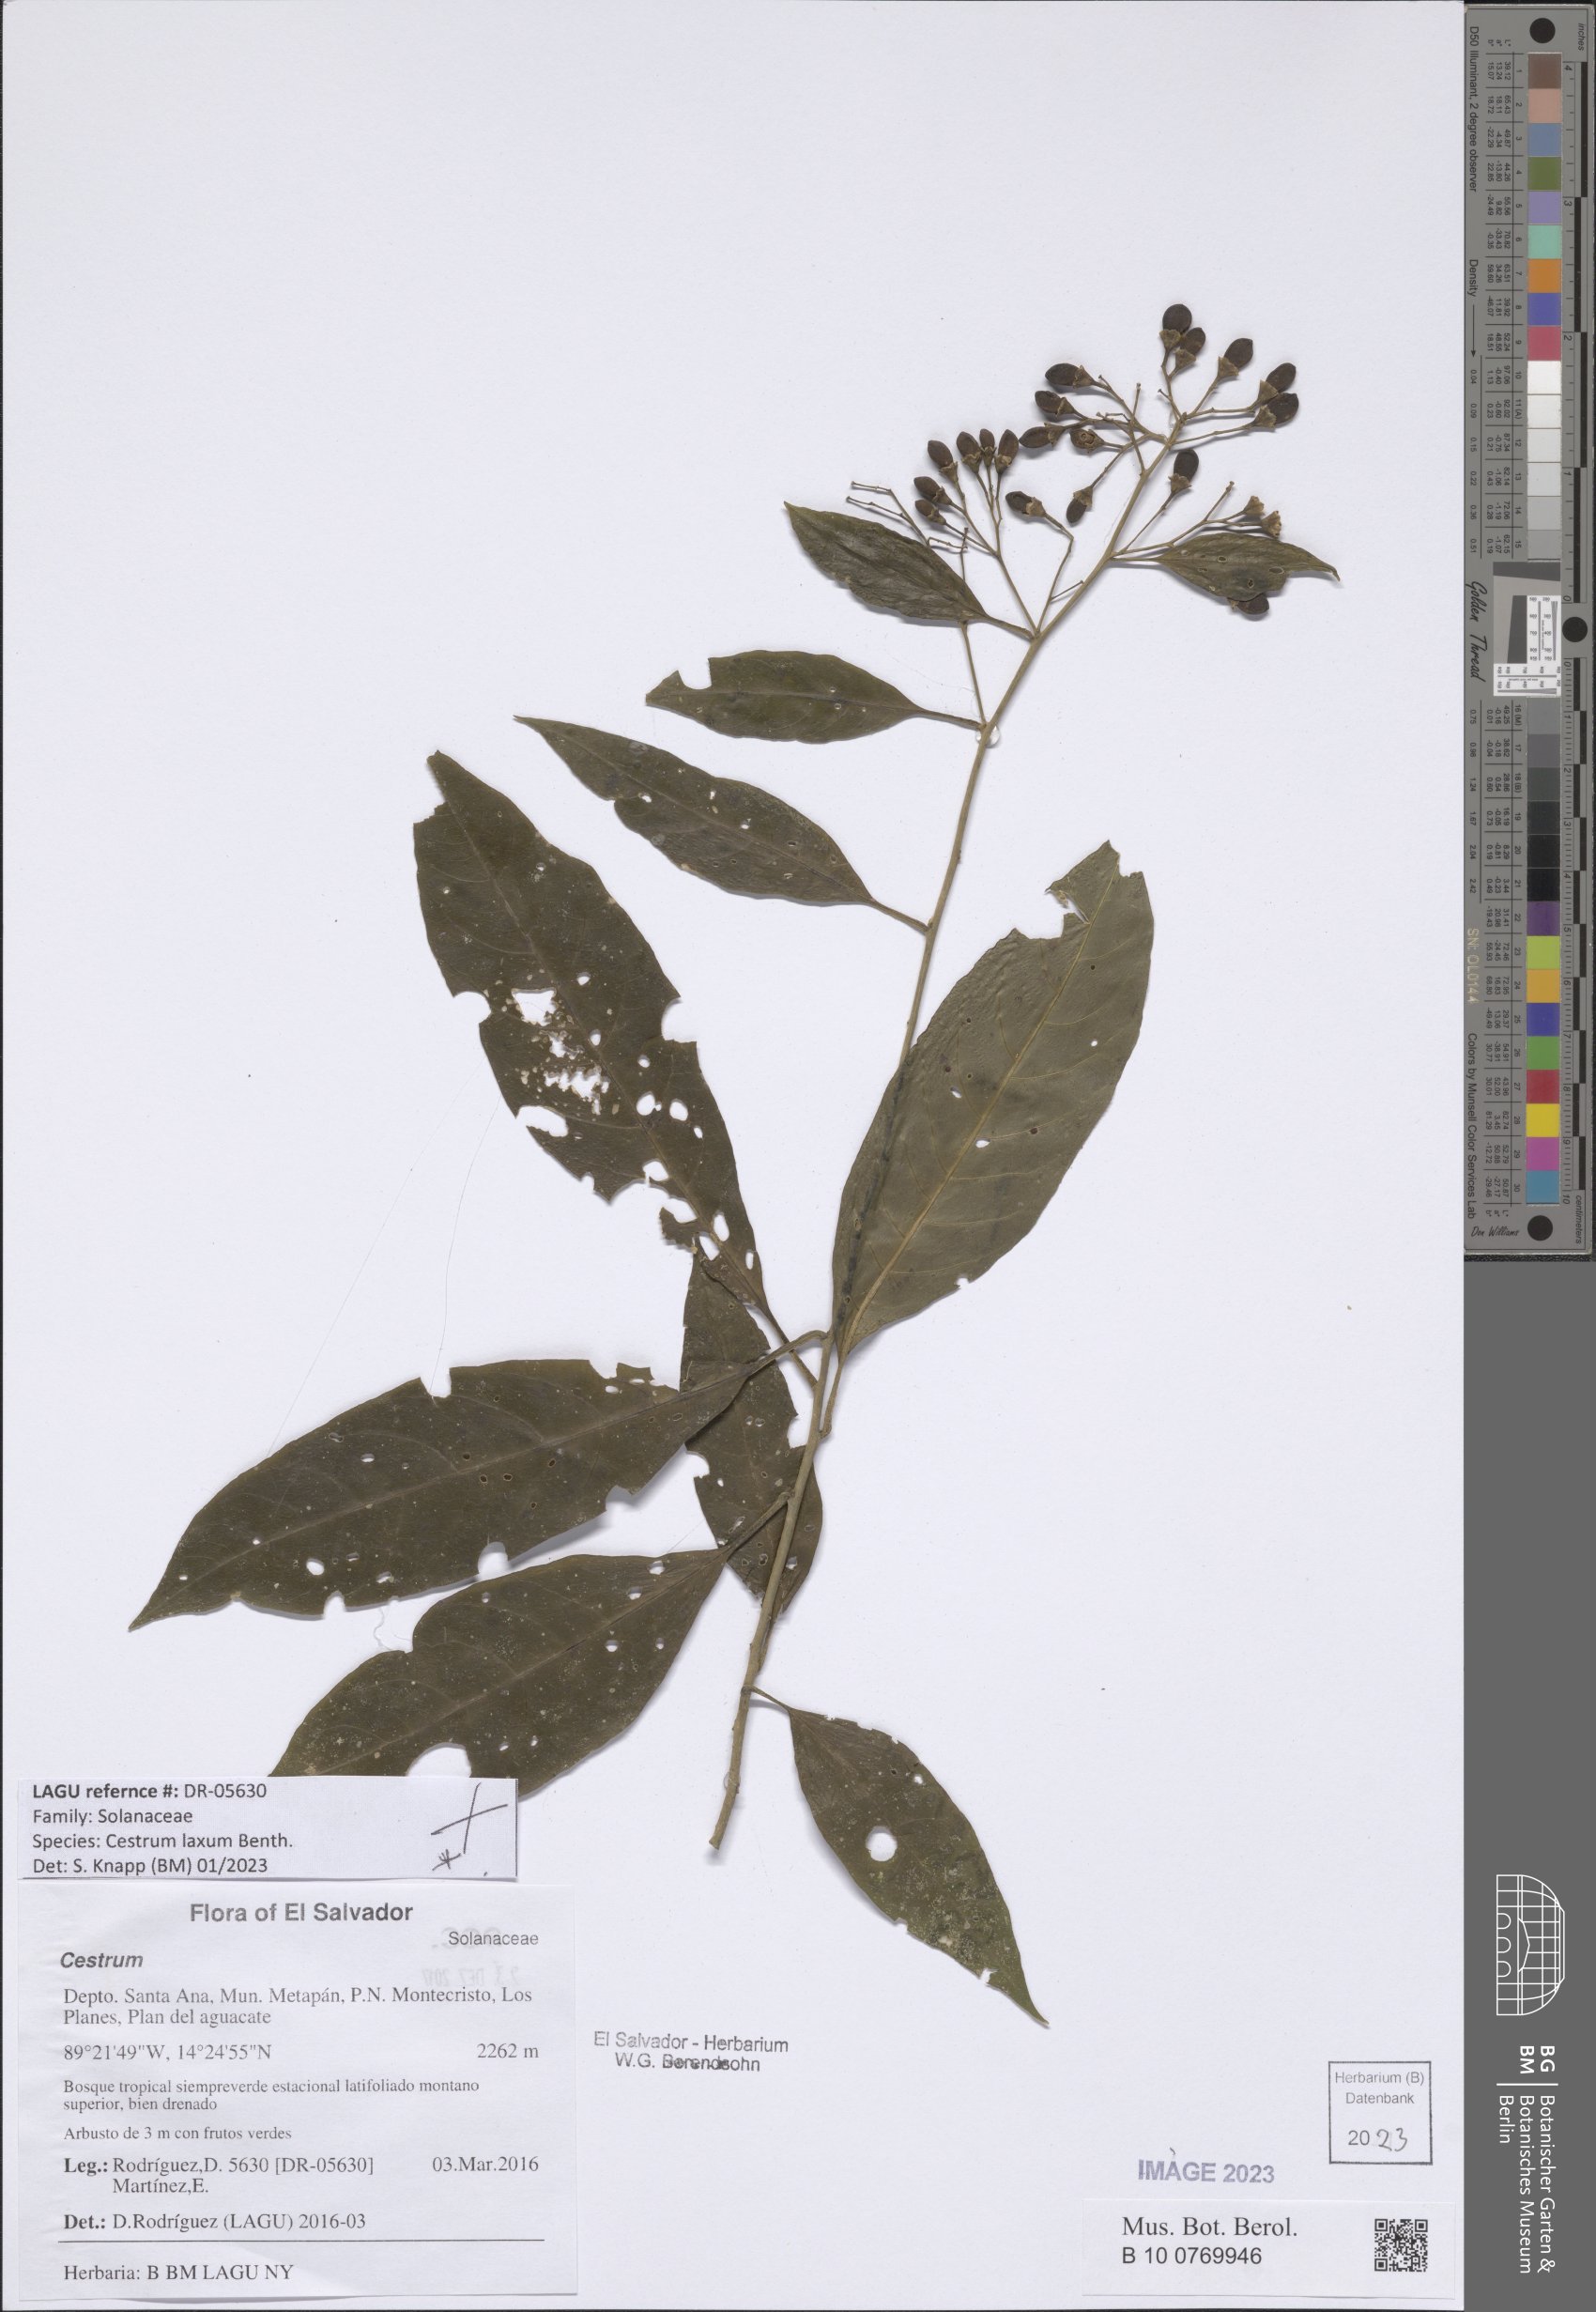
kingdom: Plantae
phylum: Tracheophyta
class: Magnoliopsida
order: Solanales
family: Solanaceae
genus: Cestrum
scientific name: Cestrum laxum
